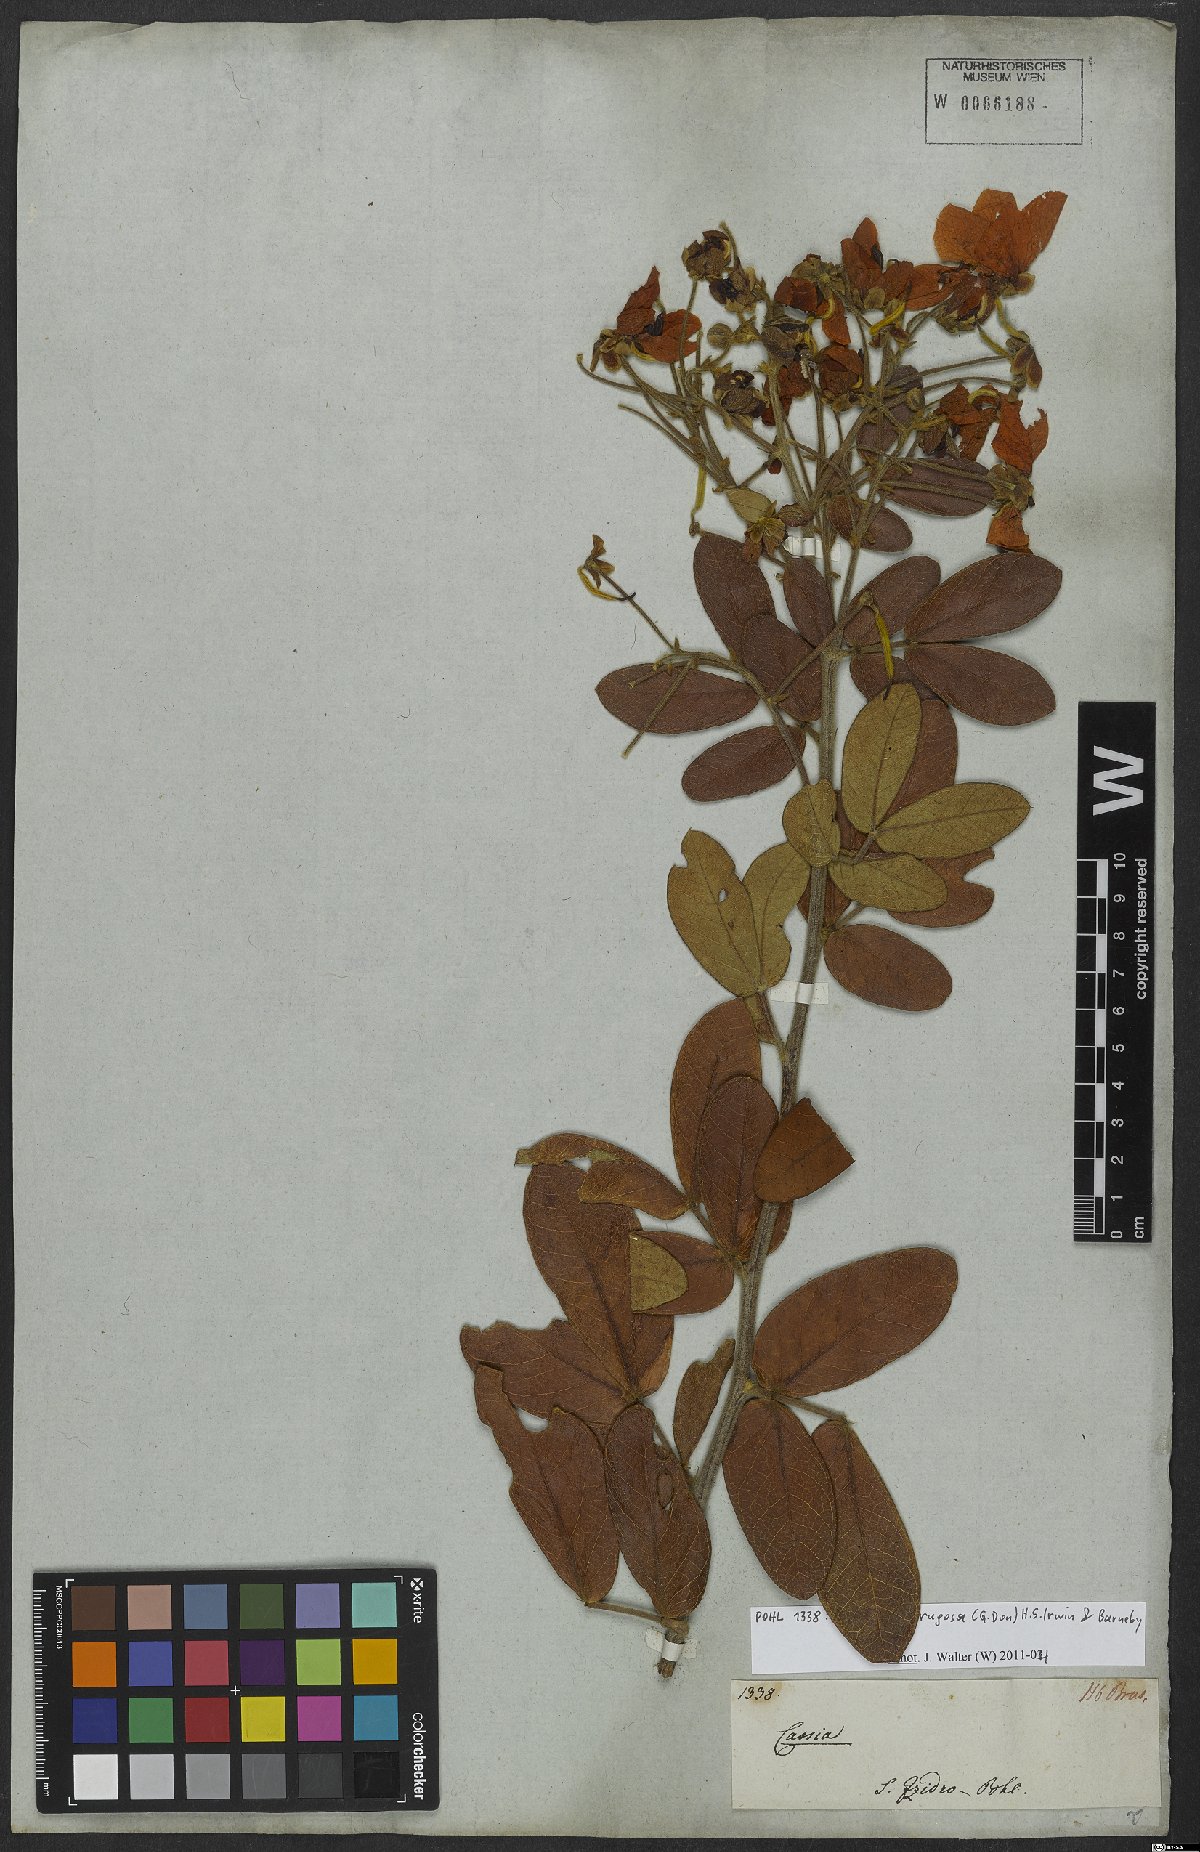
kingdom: Plantae
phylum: Tracheophyta
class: Magnoliopsida
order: Fabales
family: Fabaceae
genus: Senna
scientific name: Senna rugosa
